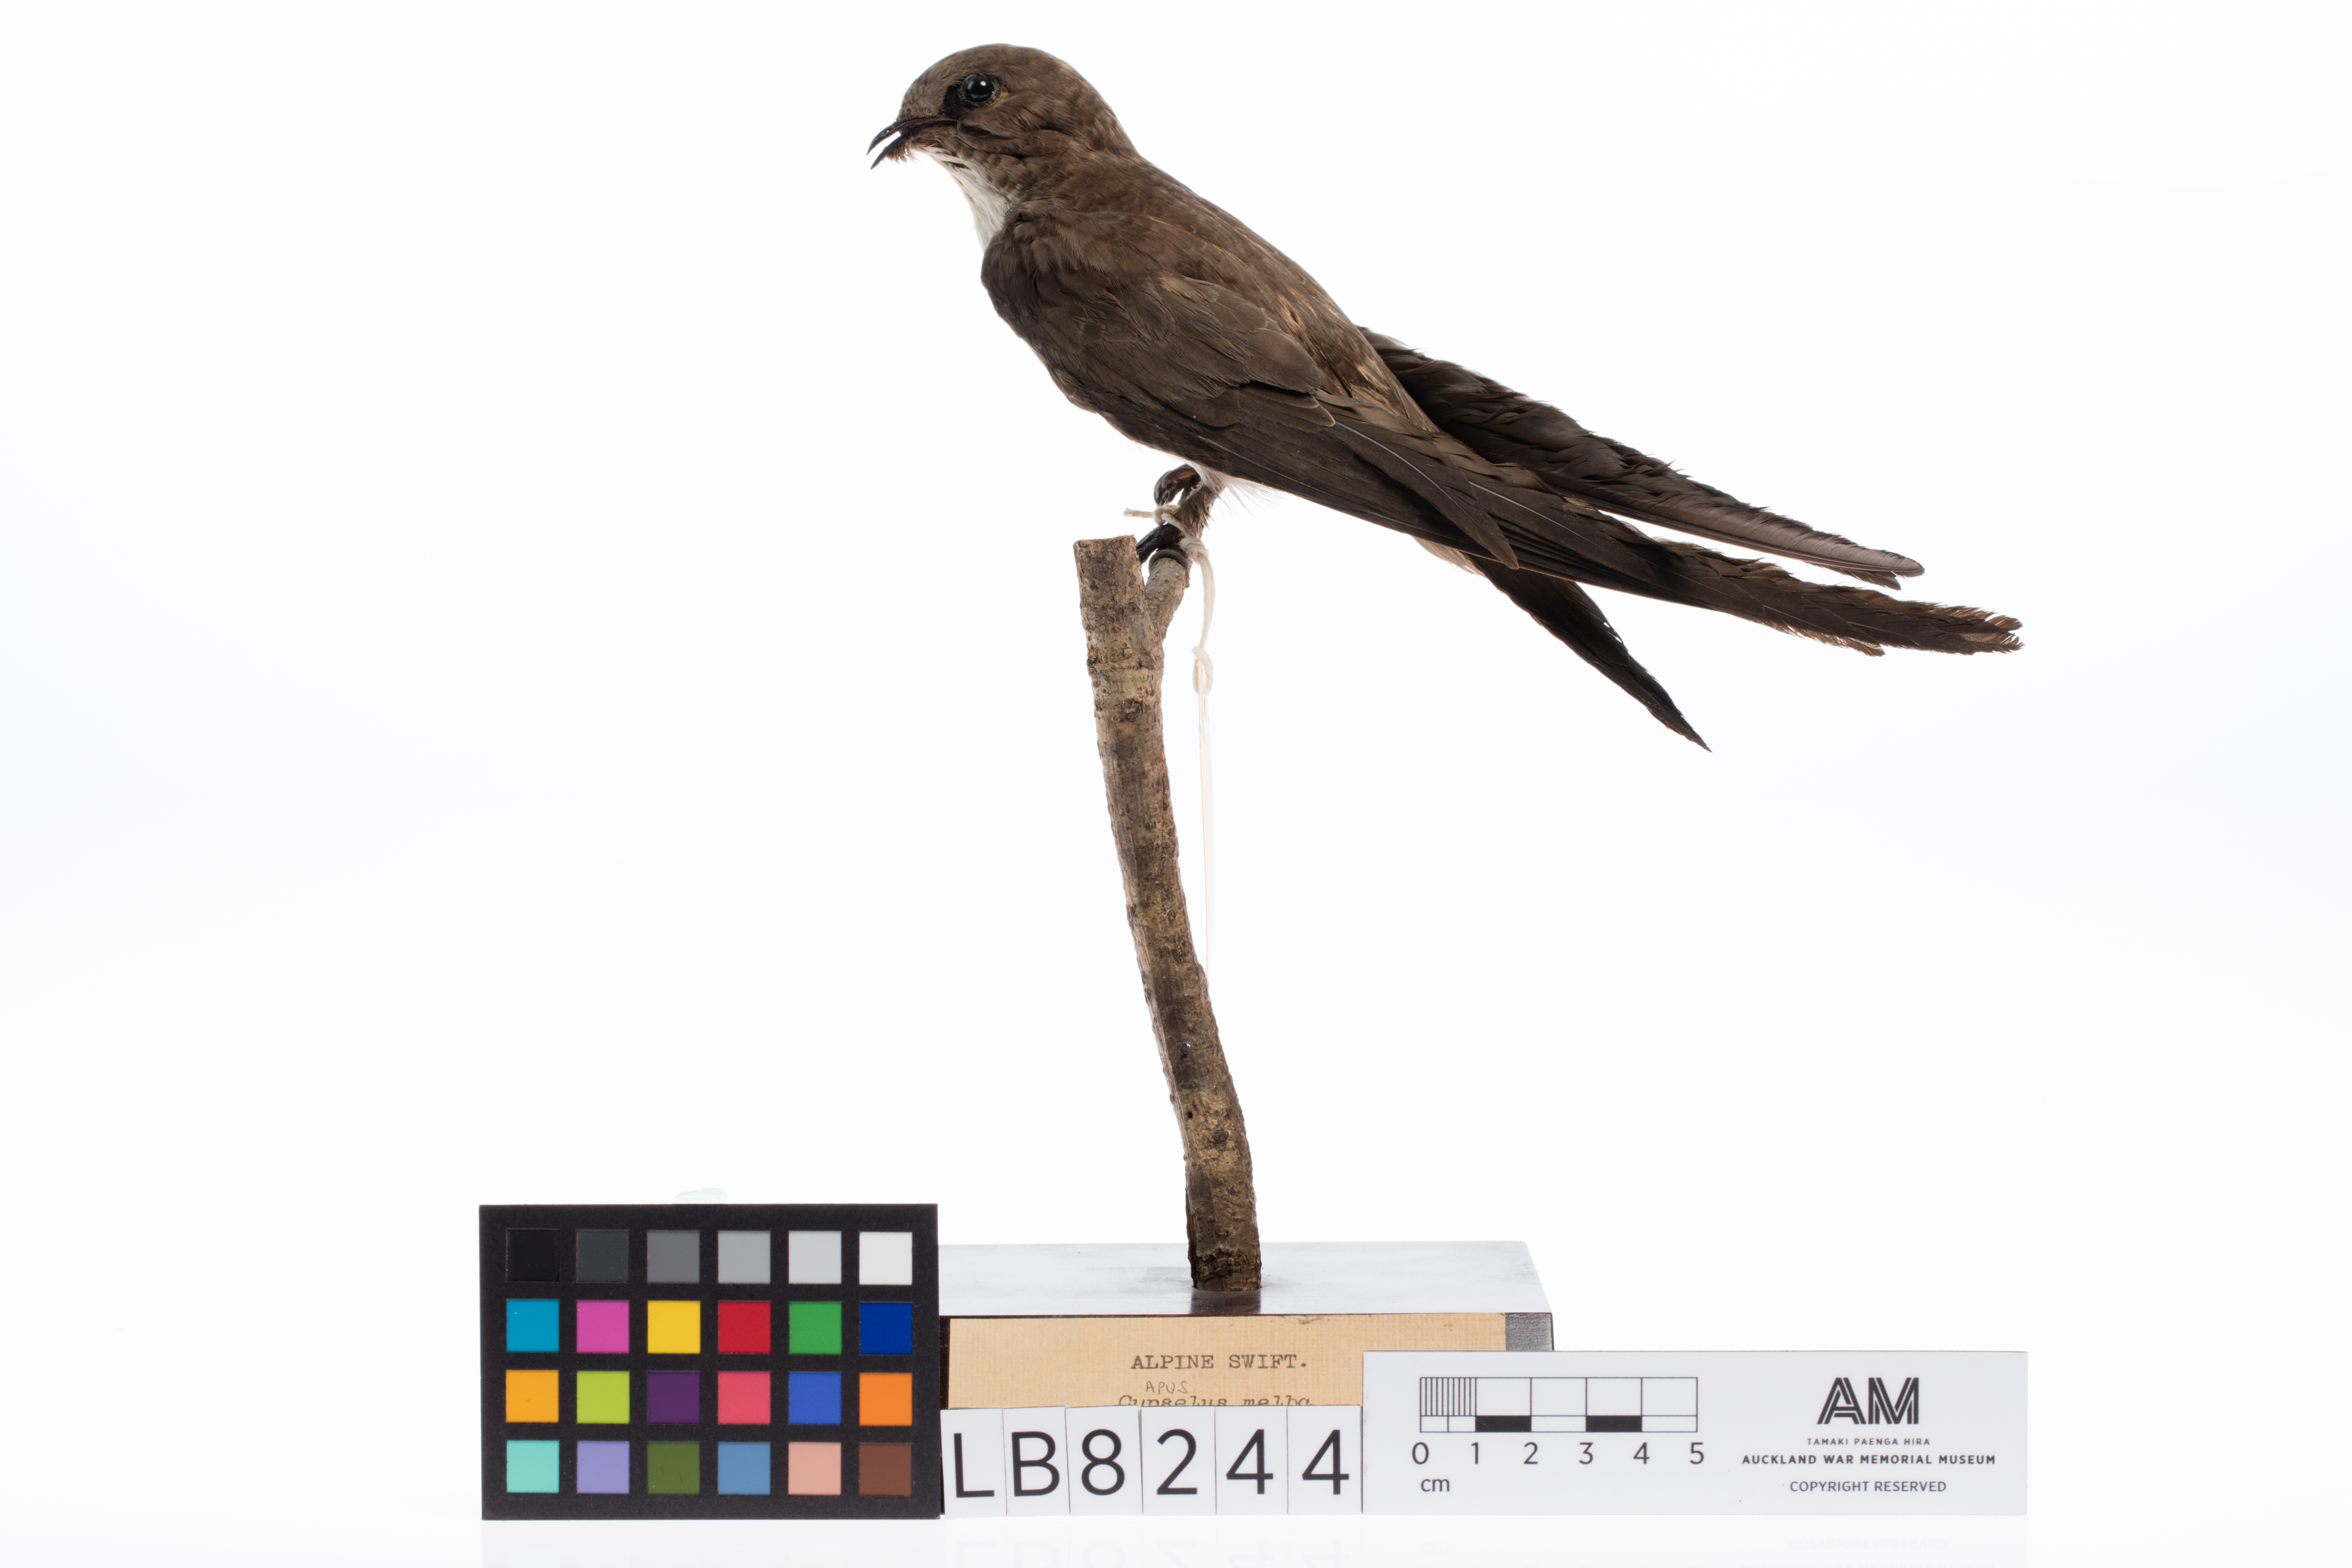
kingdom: Animalia
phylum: Chordata
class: Aves
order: Apodiformes
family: Apodidae
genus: Tachymarptis
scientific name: Tachymarptis melba
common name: Alpine swift
